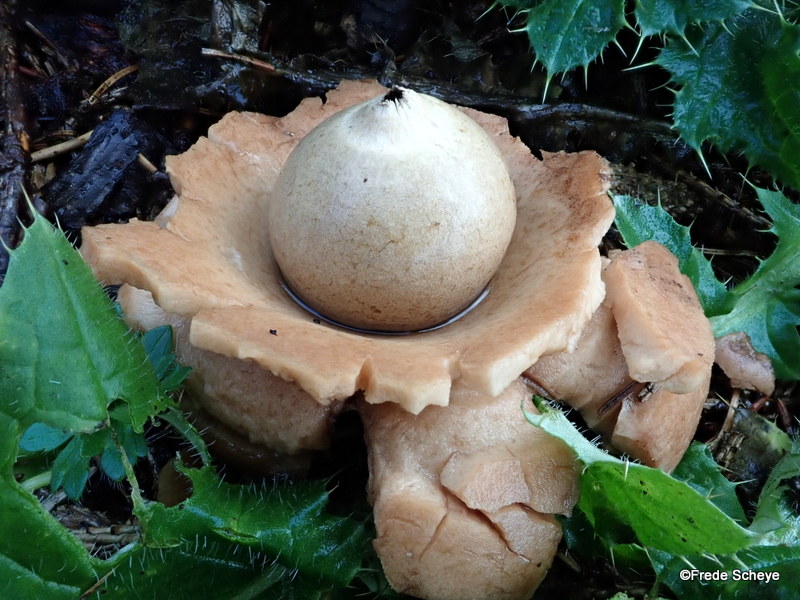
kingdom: Fungi
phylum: Basidiomycota
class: Agaricomycetes
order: Geastrales
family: Geastraceae
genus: Geastrum
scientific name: Geastrum michelianum
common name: kødet stjernebold
